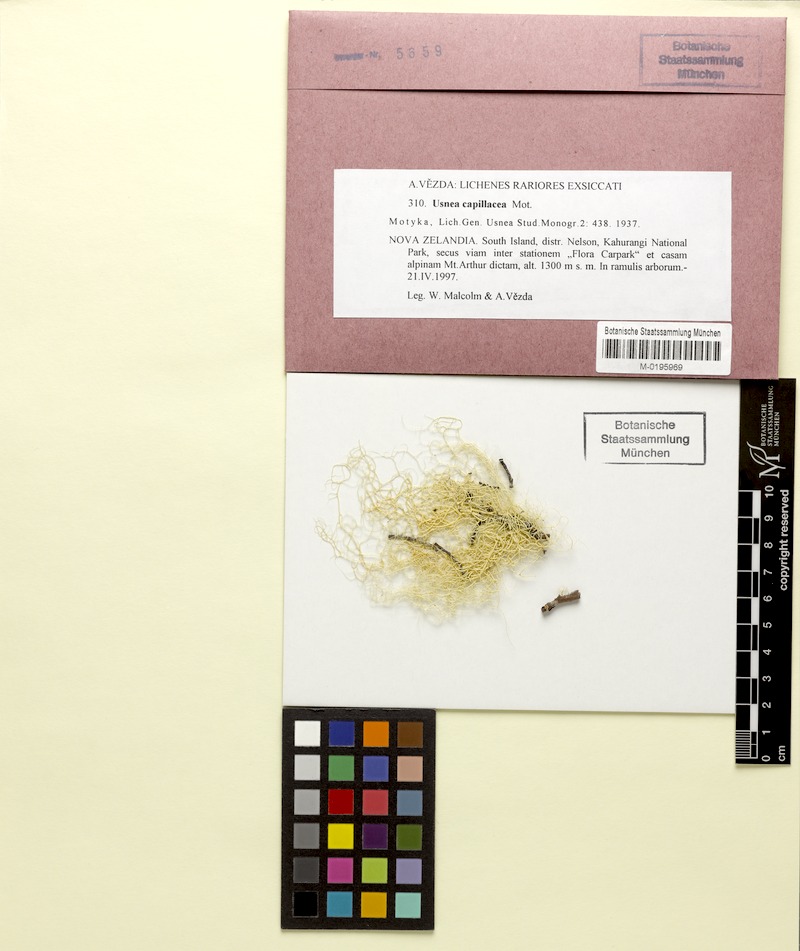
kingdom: Fungi
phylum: Ascomycota
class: Lecanoromycetes
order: Lecanorales
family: Parmeliaceae
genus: Usnea
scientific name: Usnea capillacea
